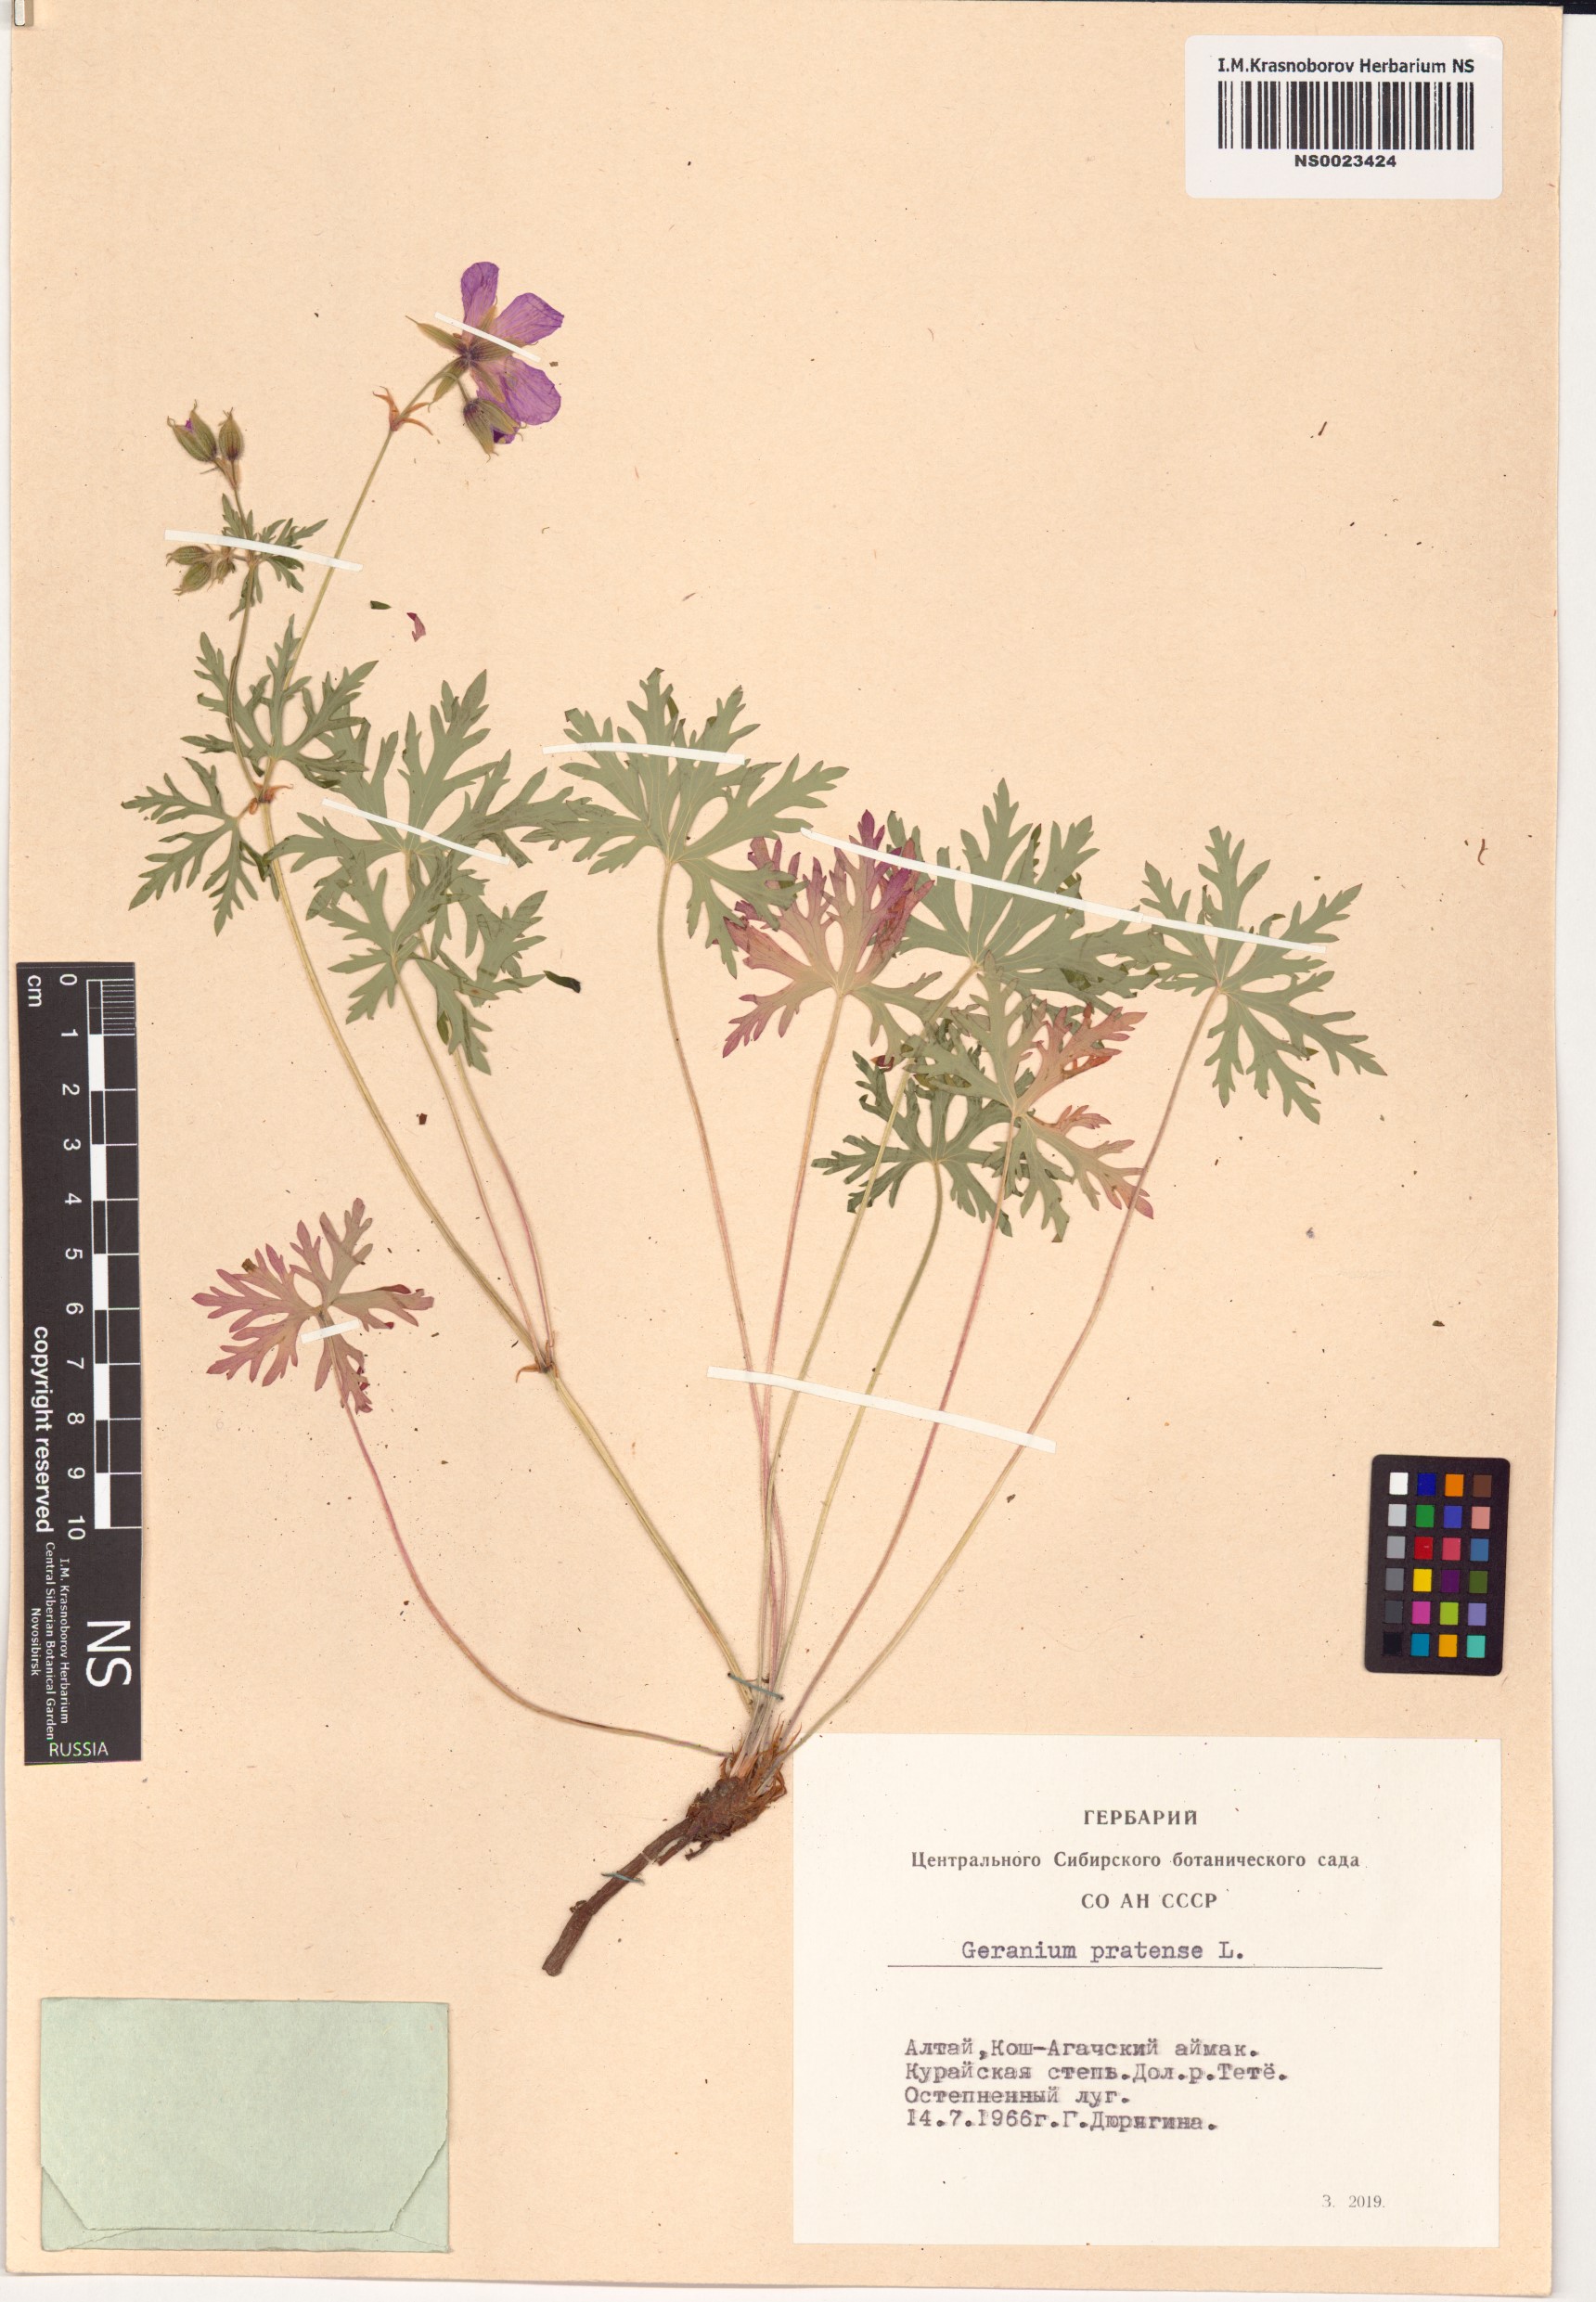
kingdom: Plantae
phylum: Tracheophyta
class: Magnoliopsida
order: Geraniales
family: Geraniaceae
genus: Geranium
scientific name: Geranium pratense
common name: Meadow crane's-bill
